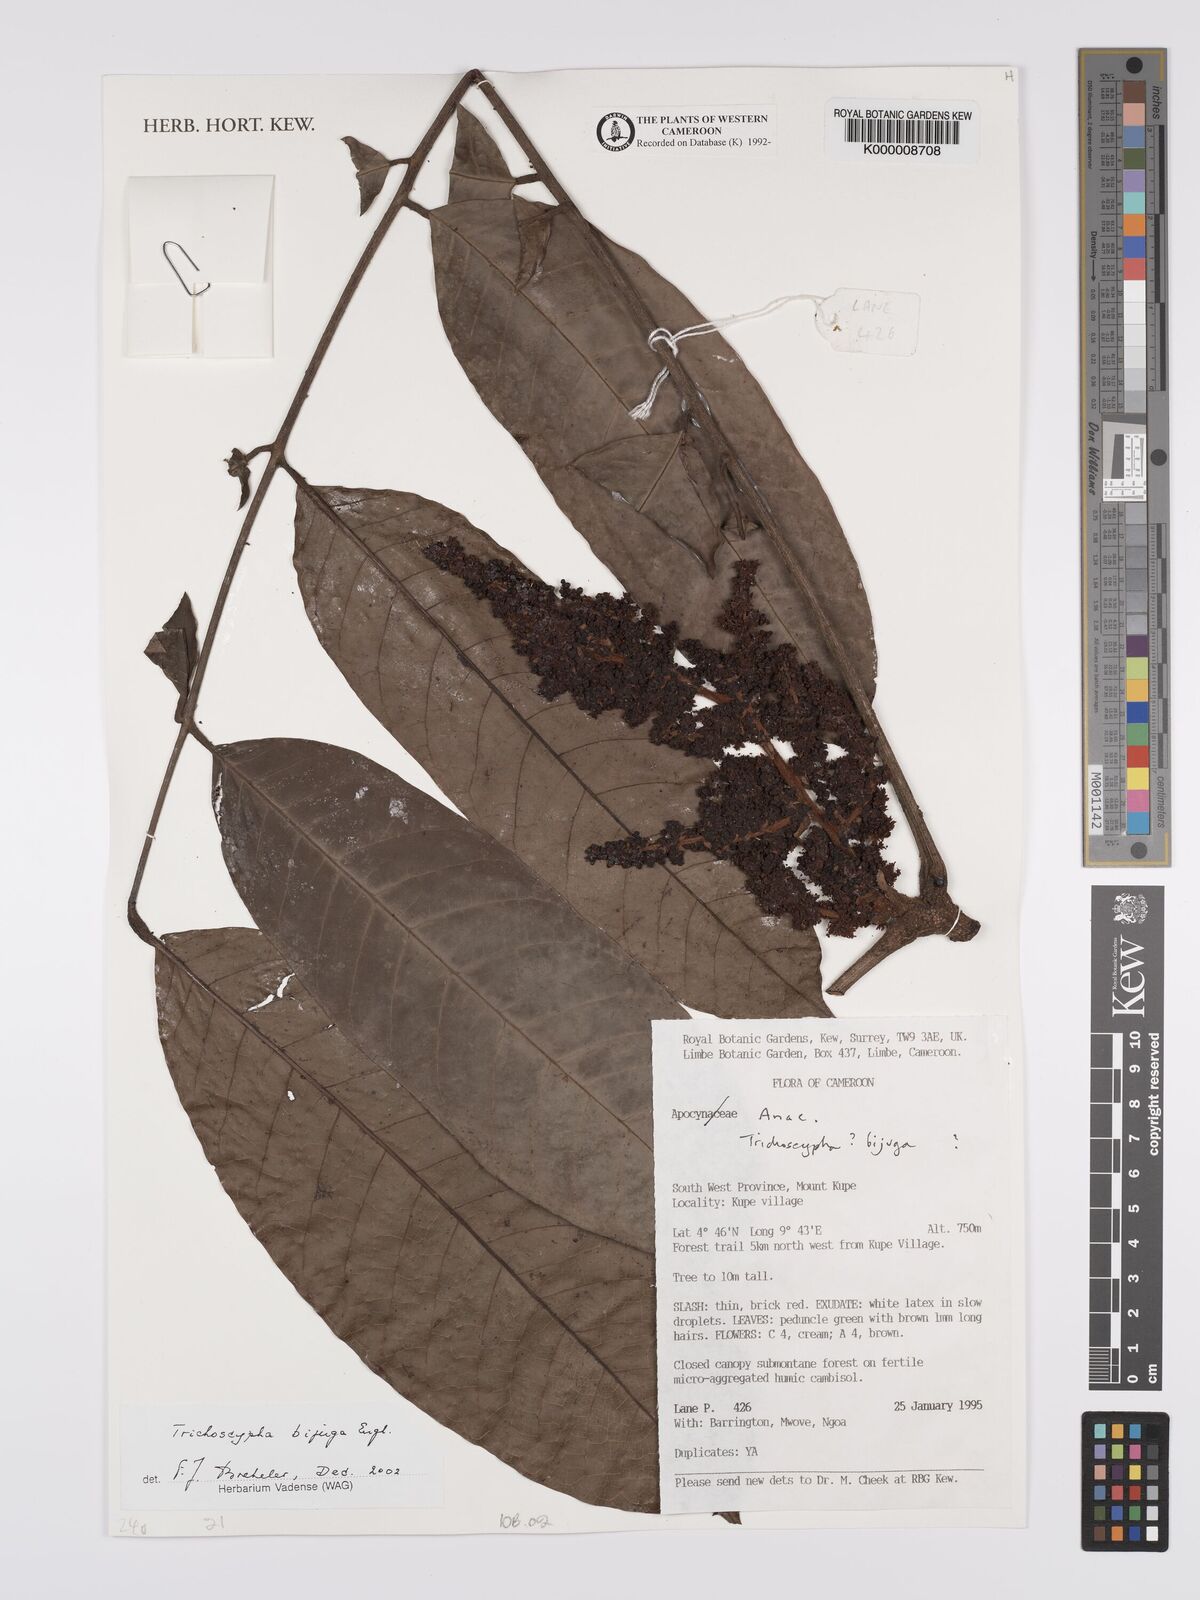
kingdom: Plantae
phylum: Tracheophyta
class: Magnoliopsida
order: Sapindales
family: Anacardiaceae
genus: Trichoscypha
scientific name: Trichoscypha bijuga
